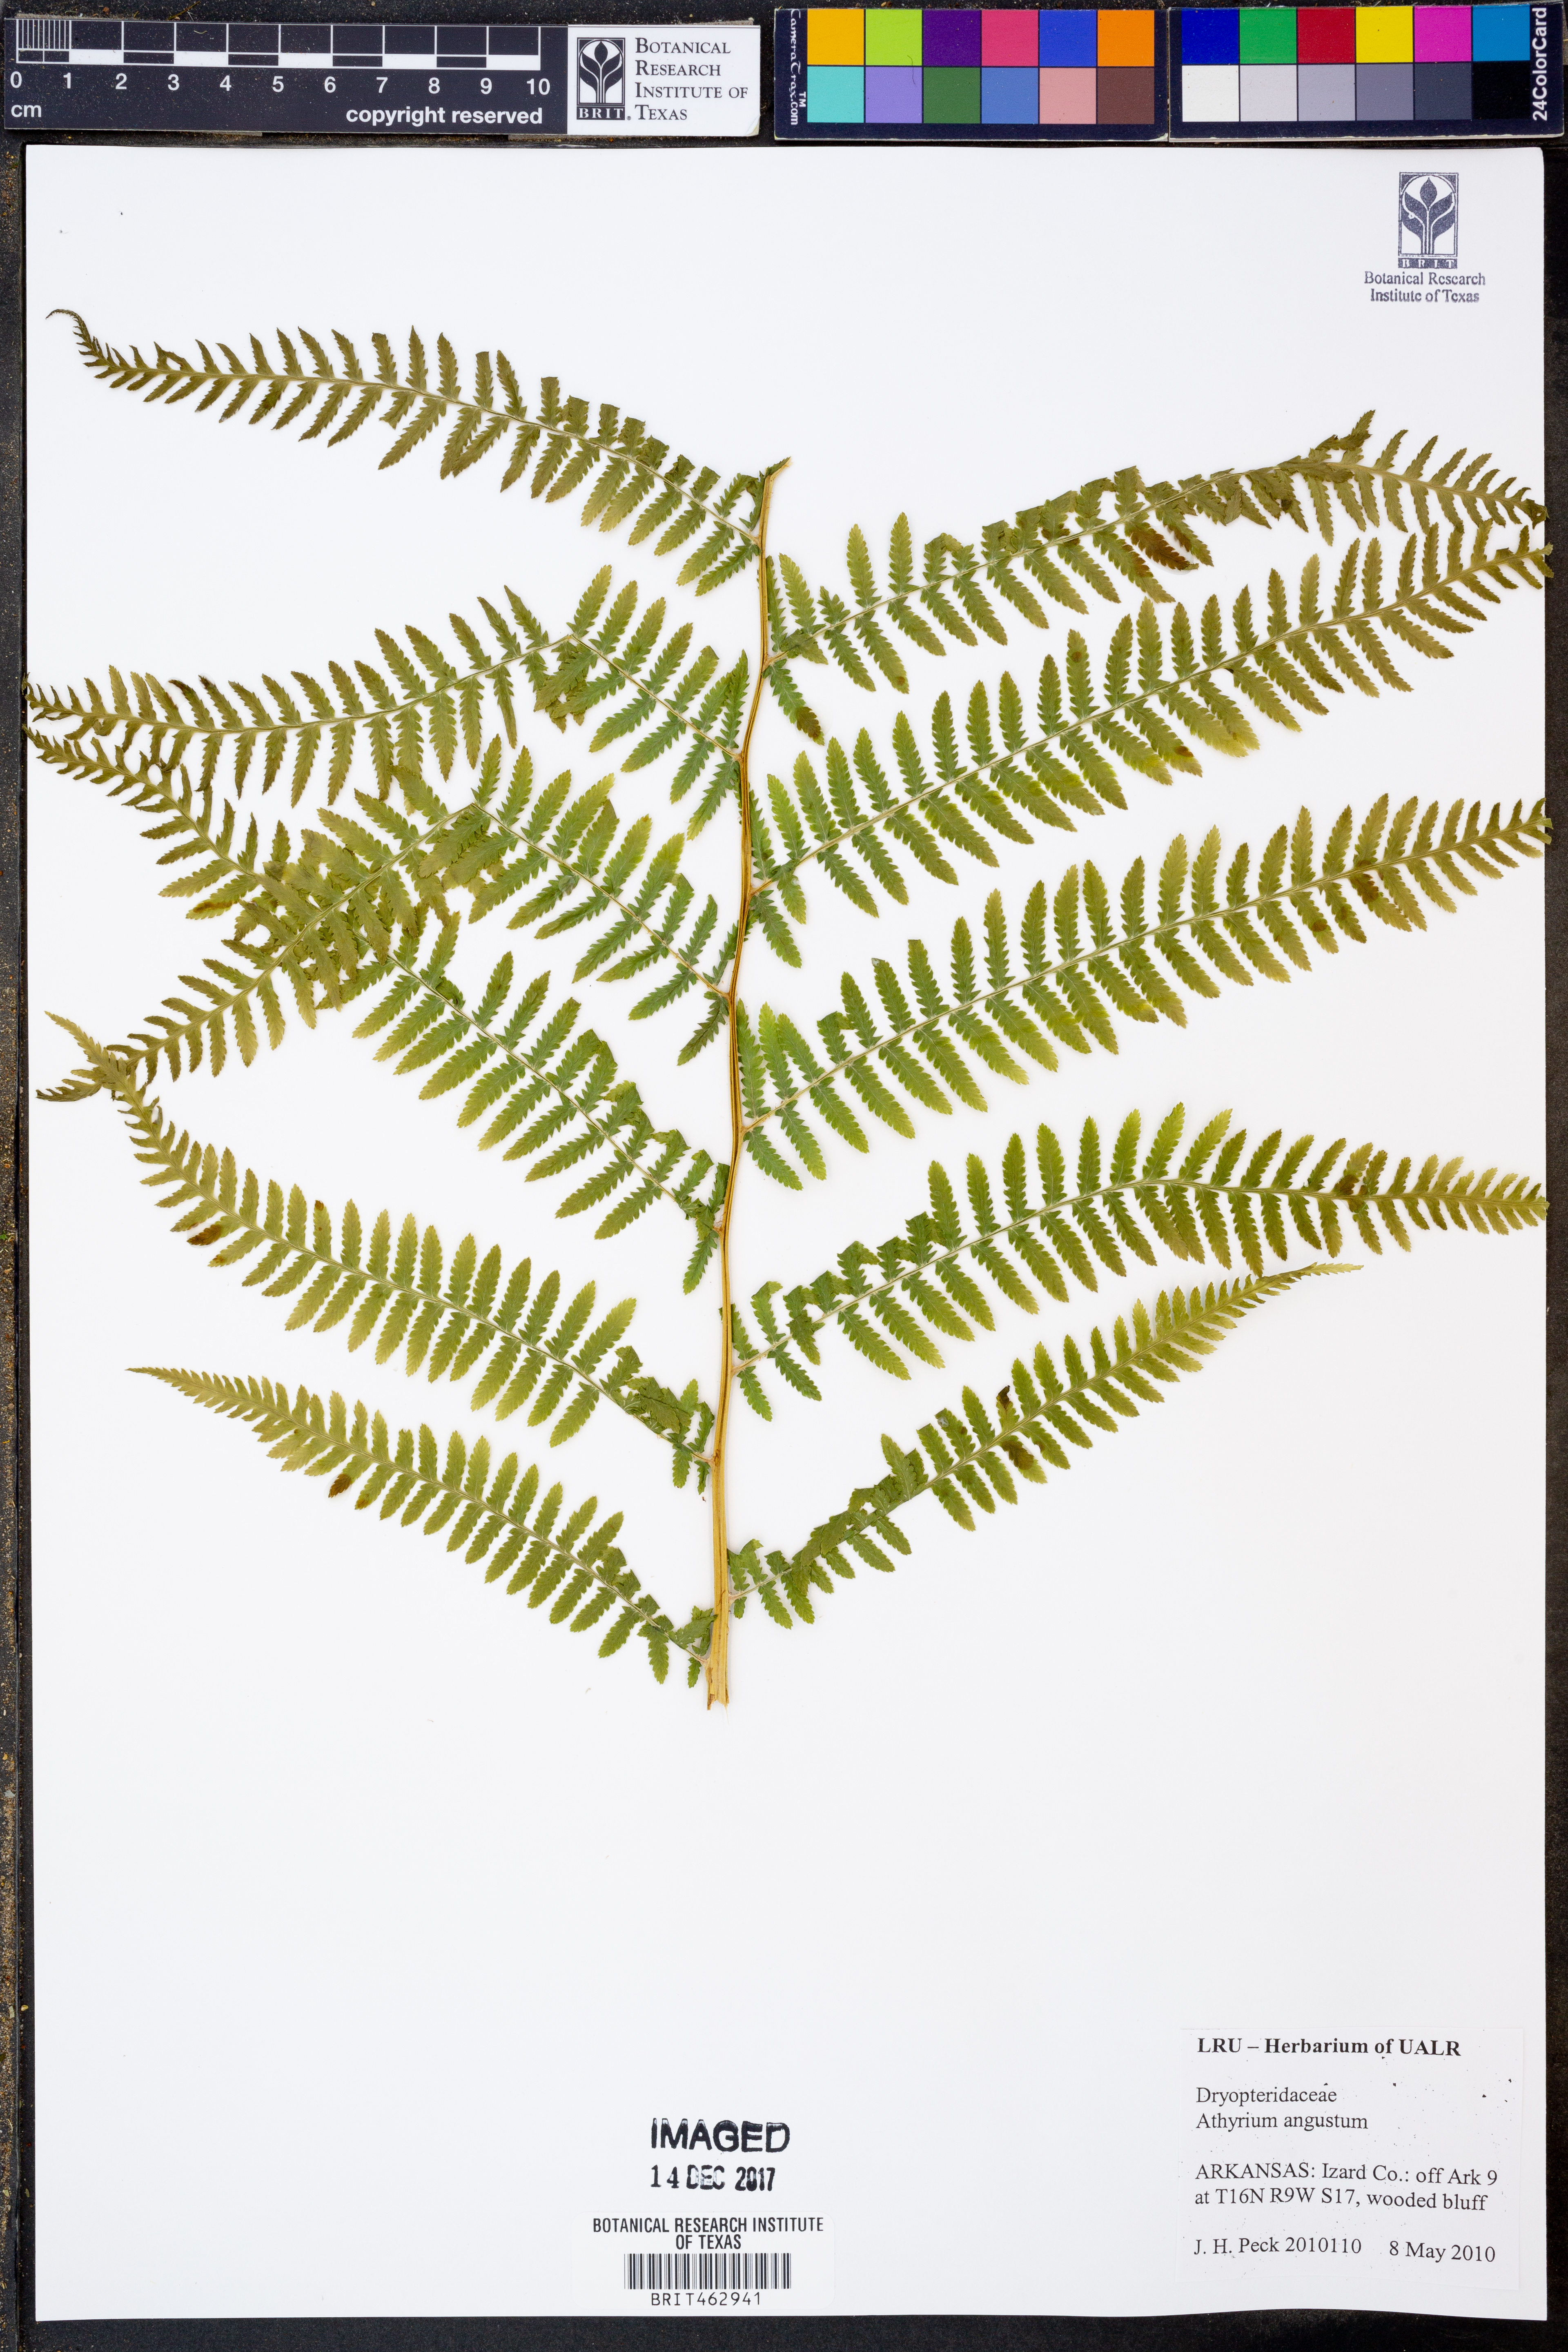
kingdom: Plantae
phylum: Tracheophyta
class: Polypodiopsida
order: Polypodiales
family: Athyriaceae
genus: Athyrium
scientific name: Athyrium angustum
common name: Northern lady fern
